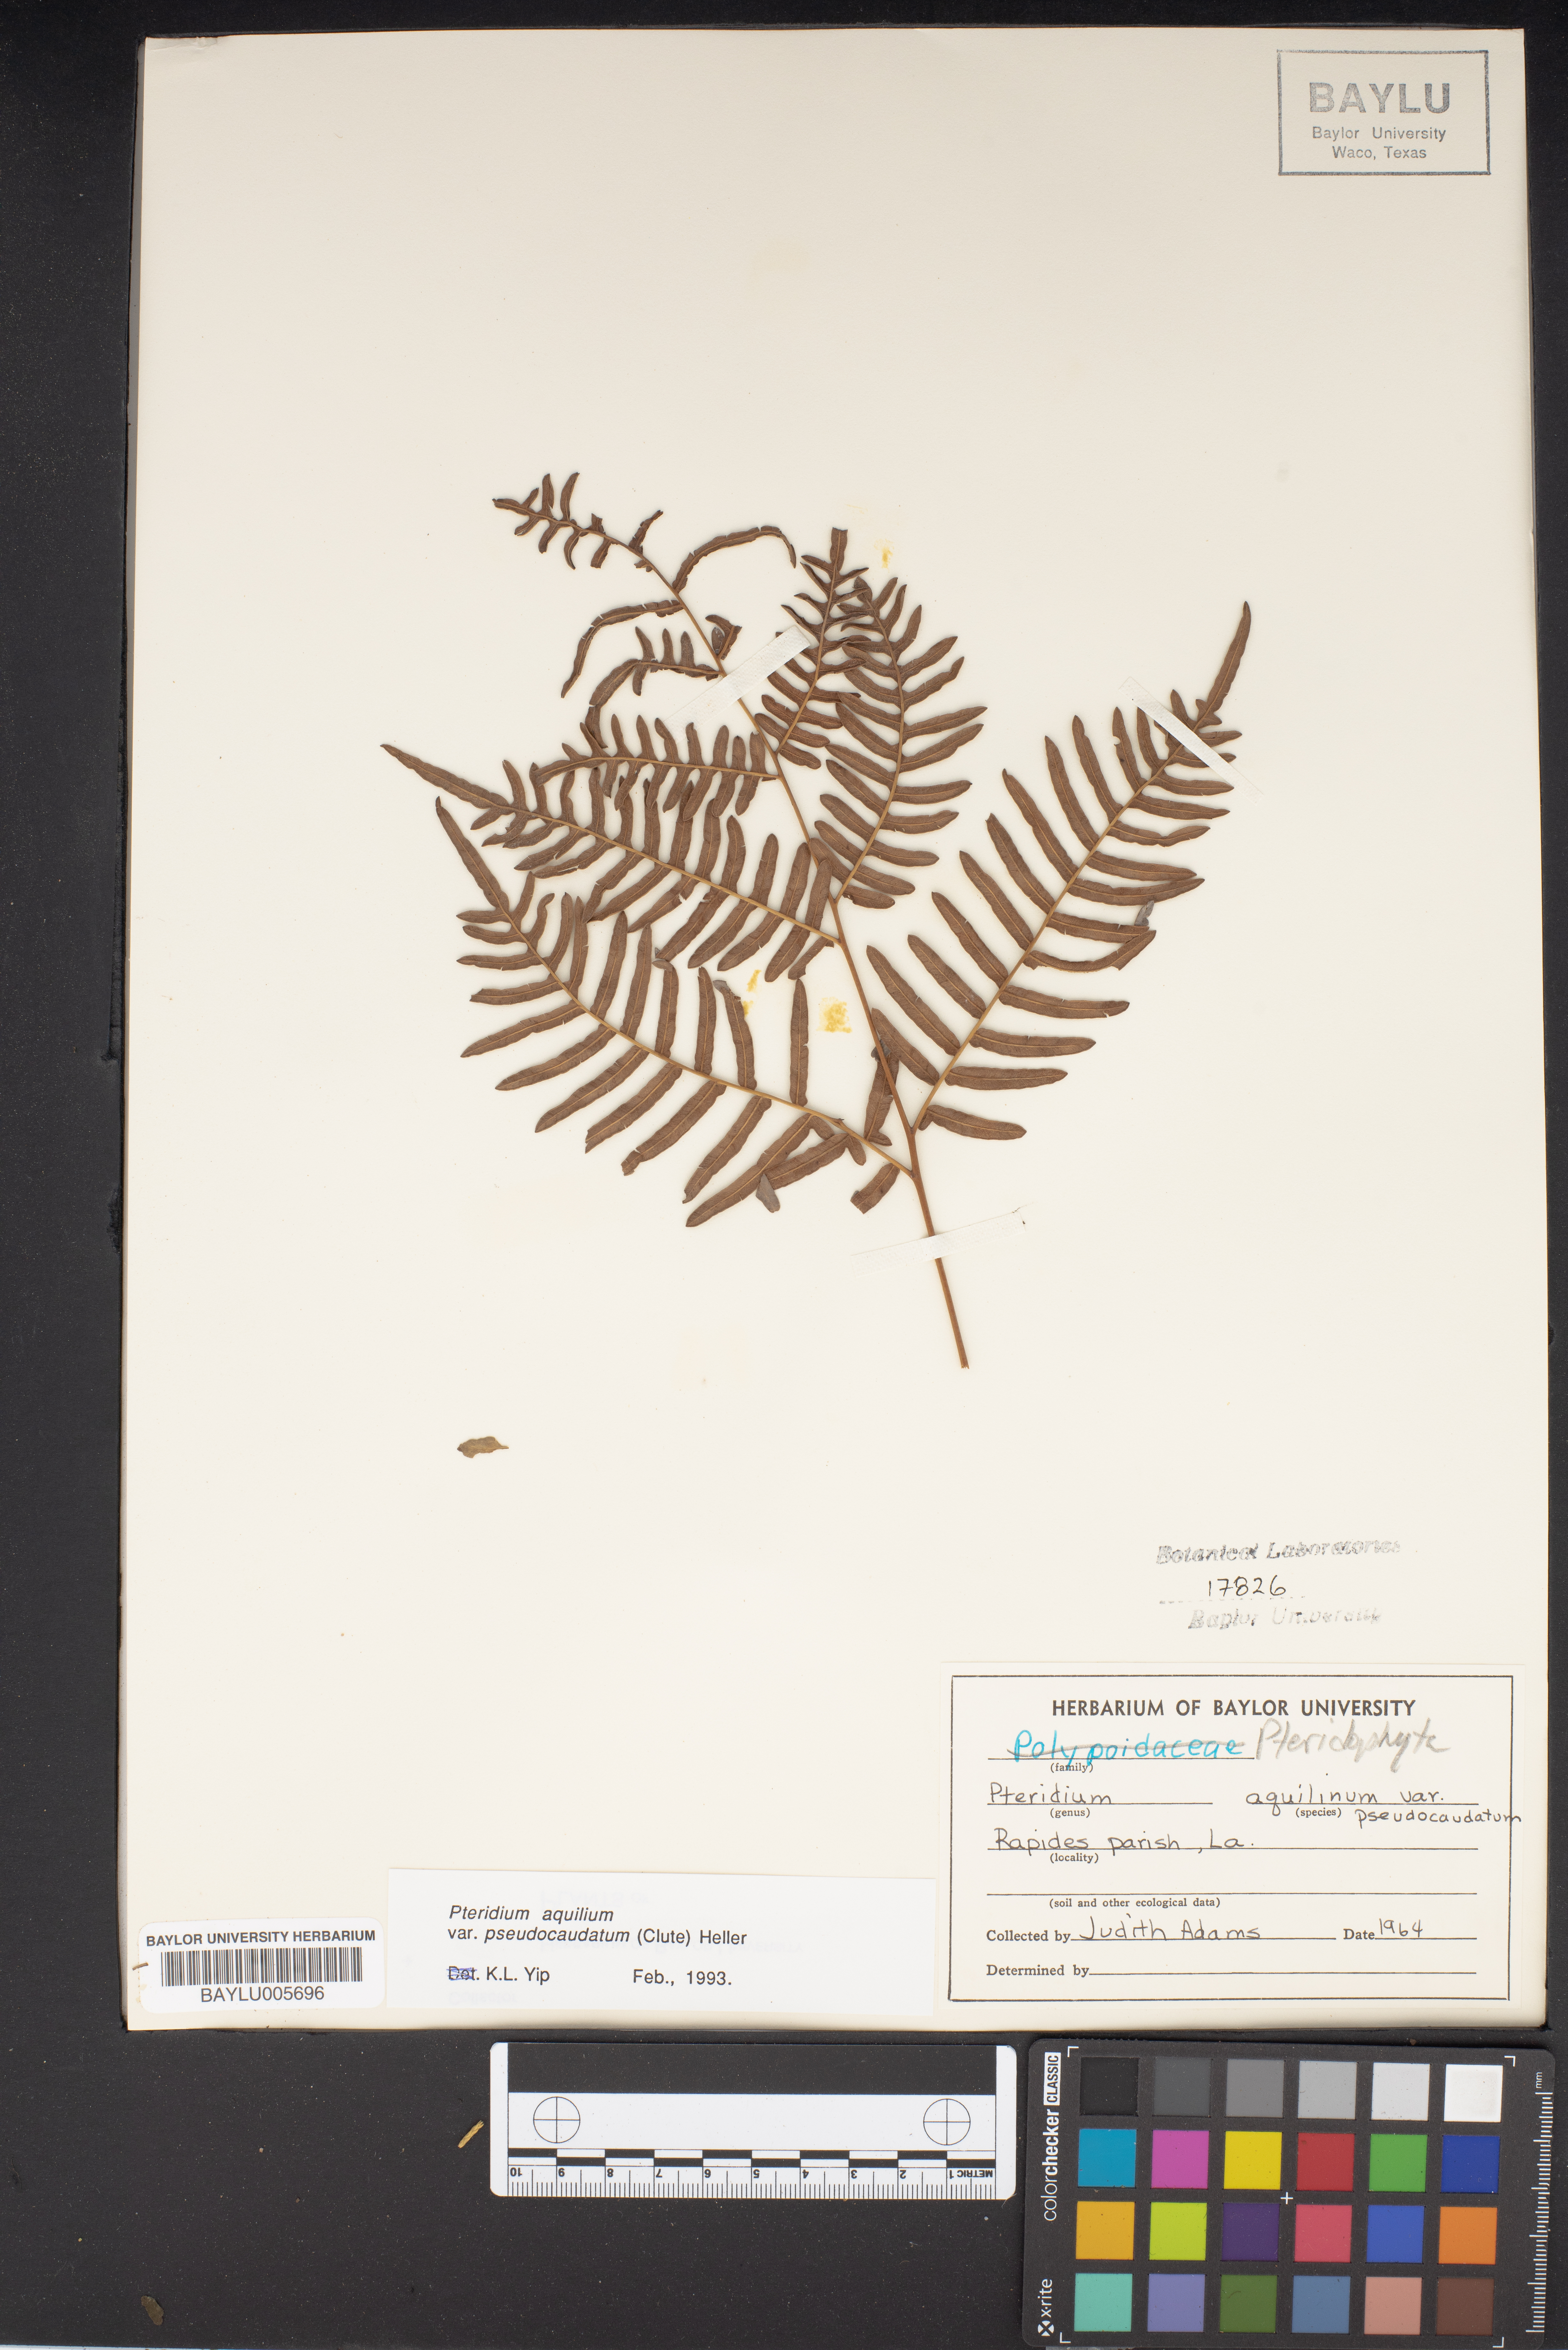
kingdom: Plantae
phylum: Tracheophyta
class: Polypodiopsida
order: Polypodiales
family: Dennstaedtiaceae
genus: Pteridium
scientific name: Pteridium aquilinum
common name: Bracken
